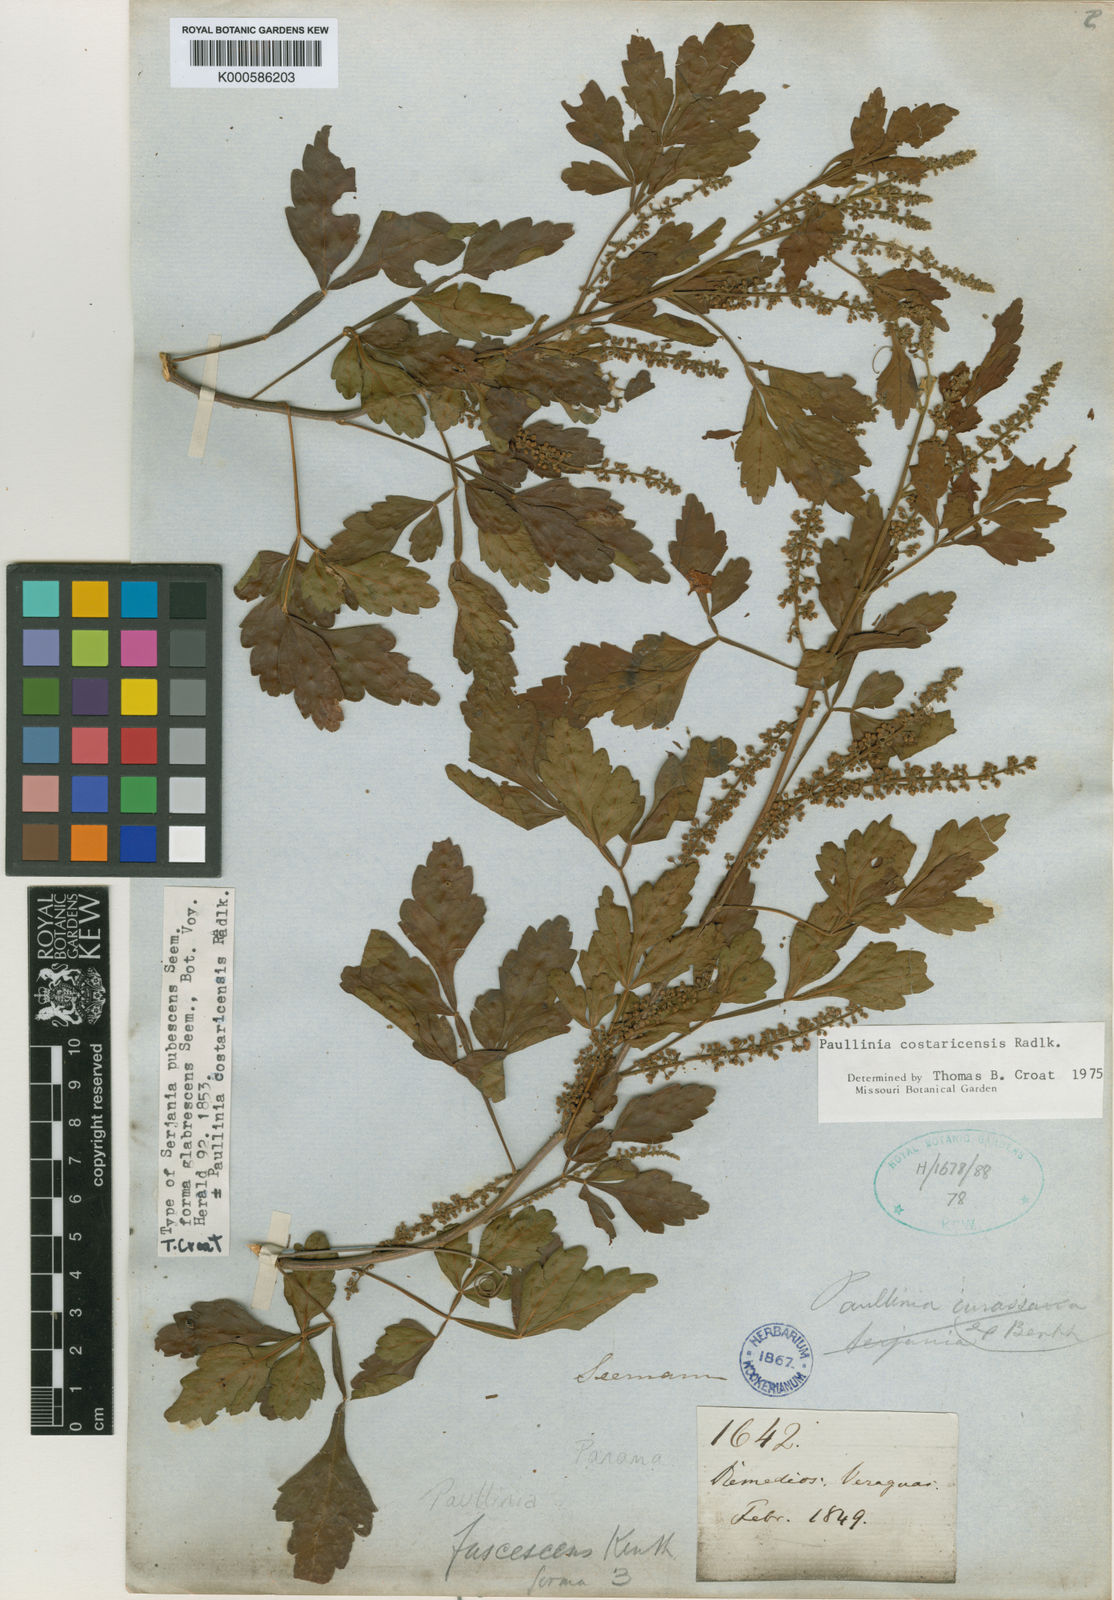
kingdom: Plantae
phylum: Tracheophyta
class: Magnoliopsida
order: Sapindales
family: Sapindaceae
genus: Paullinia
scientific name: Paullinia costaricensis
